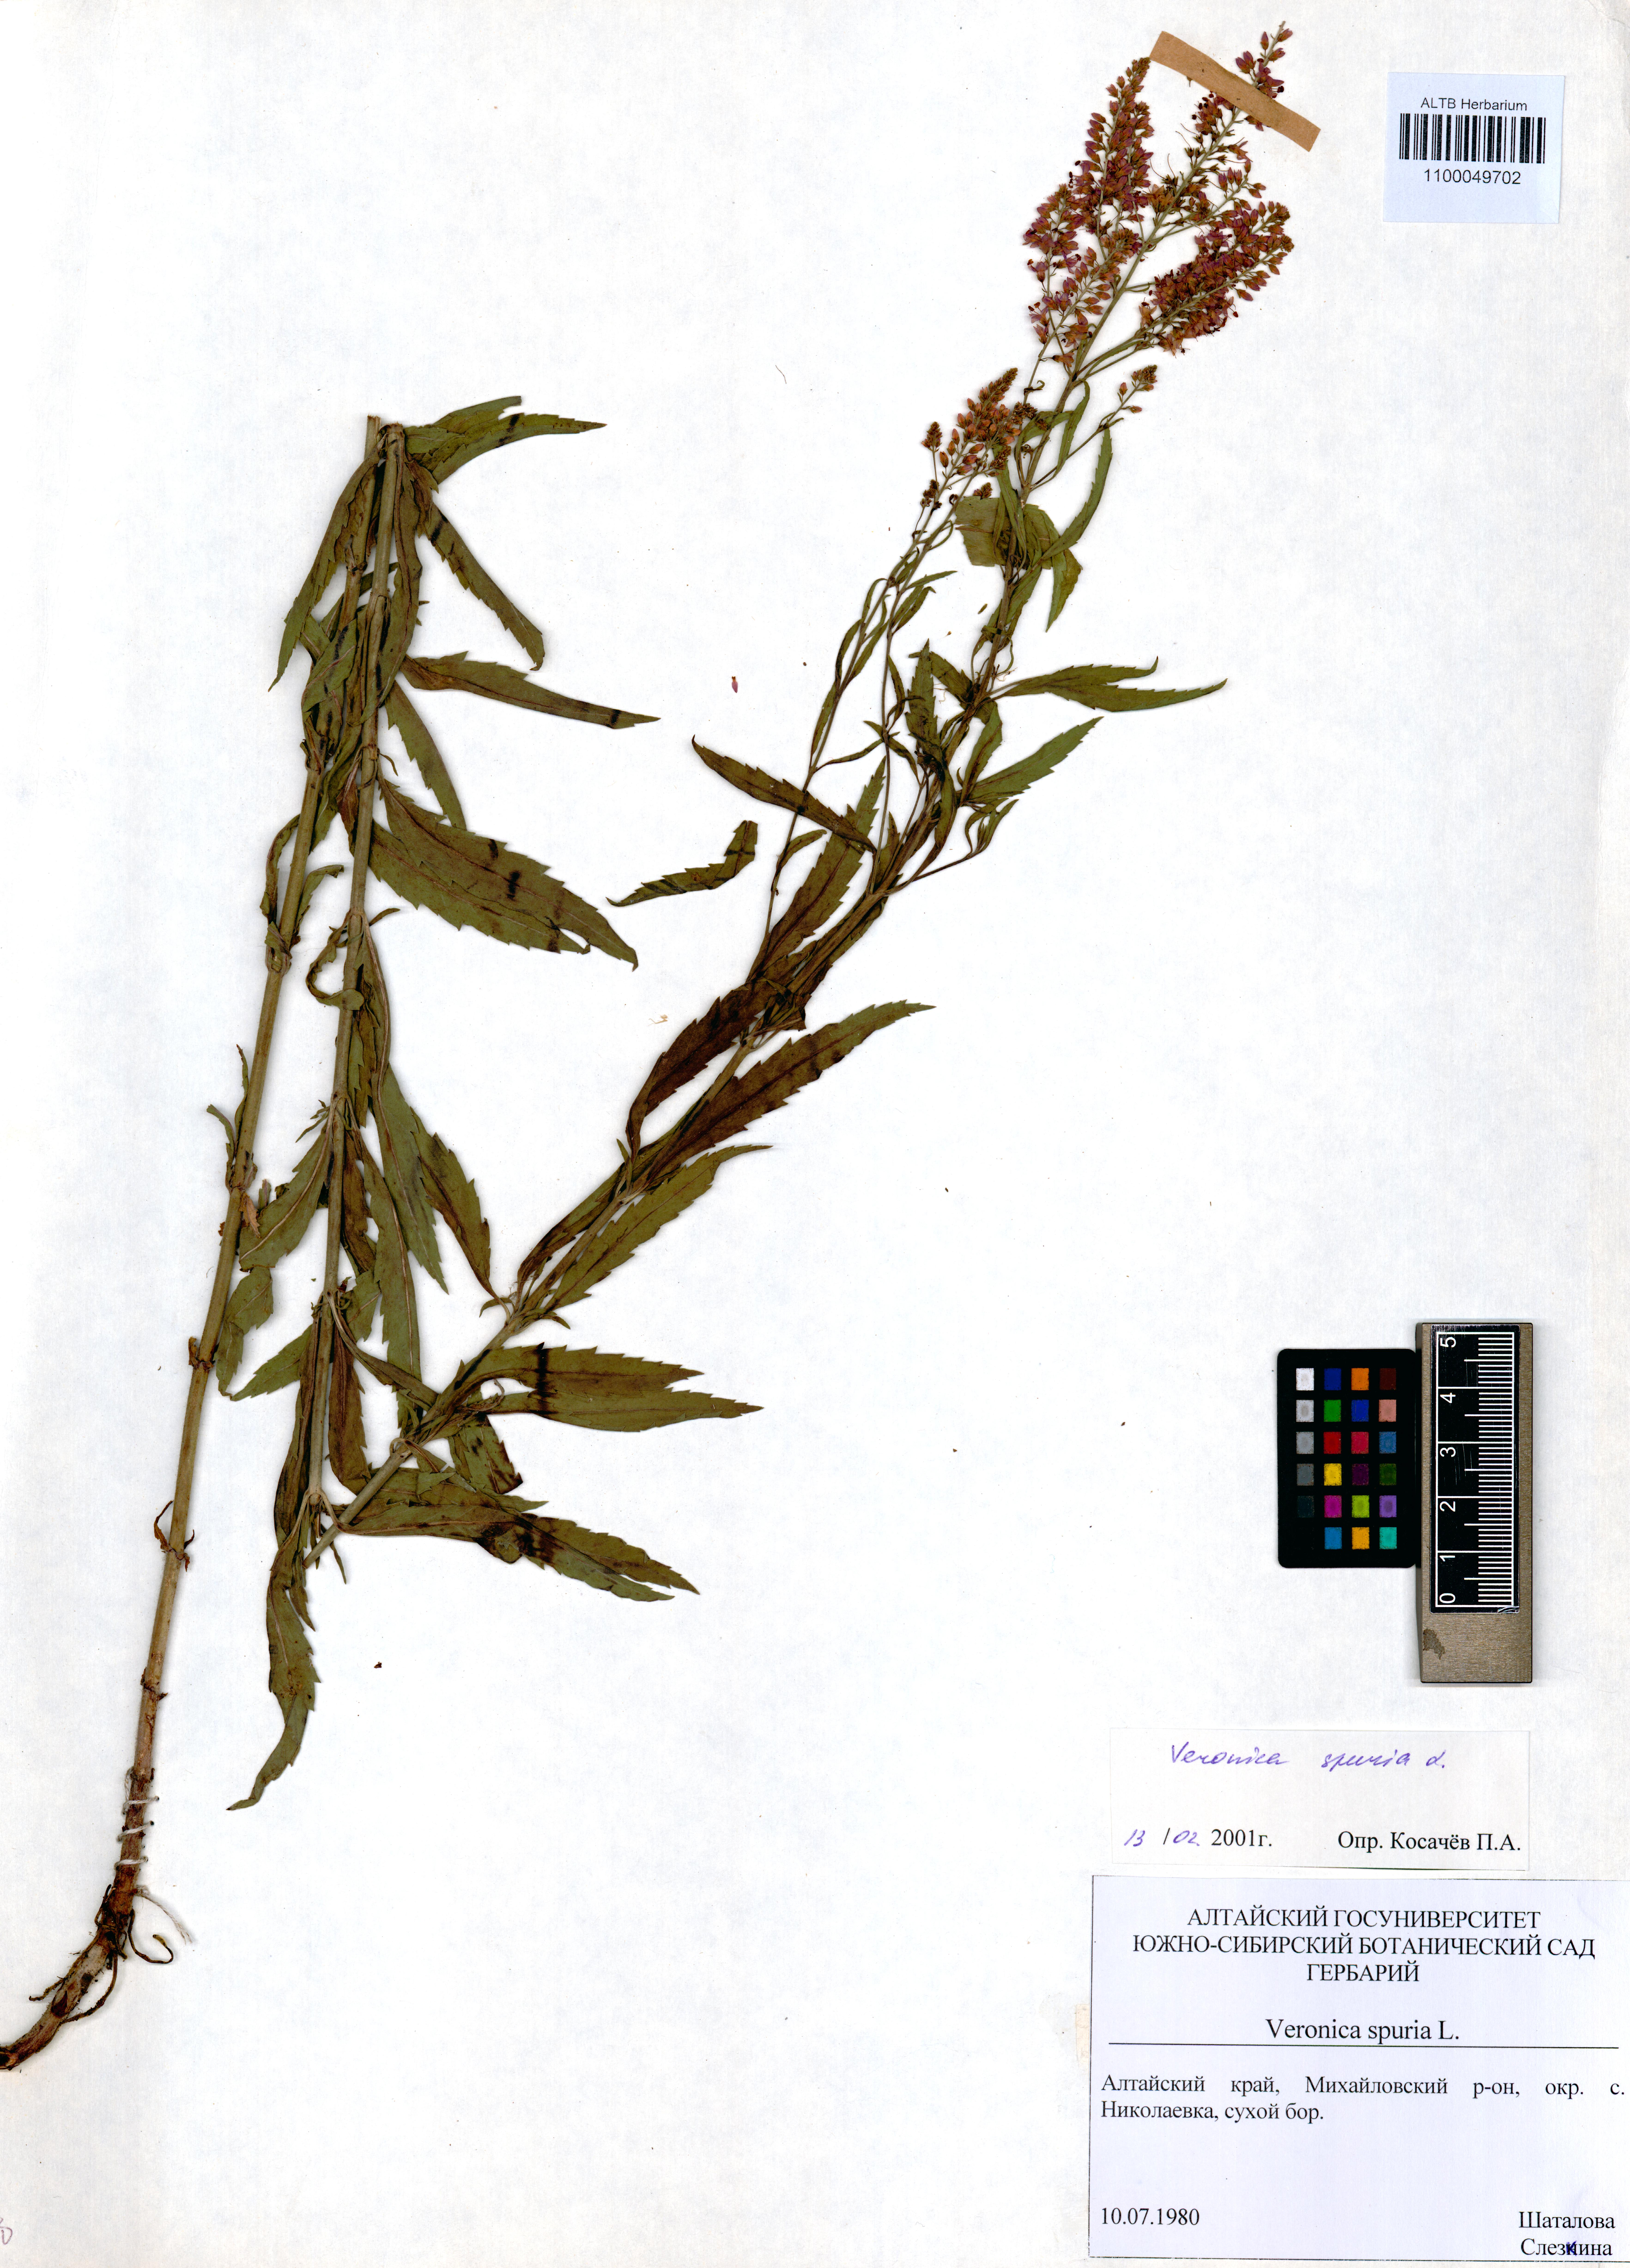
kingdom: Plantae
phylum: Tracheophyta
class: Magnoliopsida
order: Lamiales
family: Plantaginaceae
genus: Veronica
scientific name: Veronica spuria
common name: Bastard speedwell
